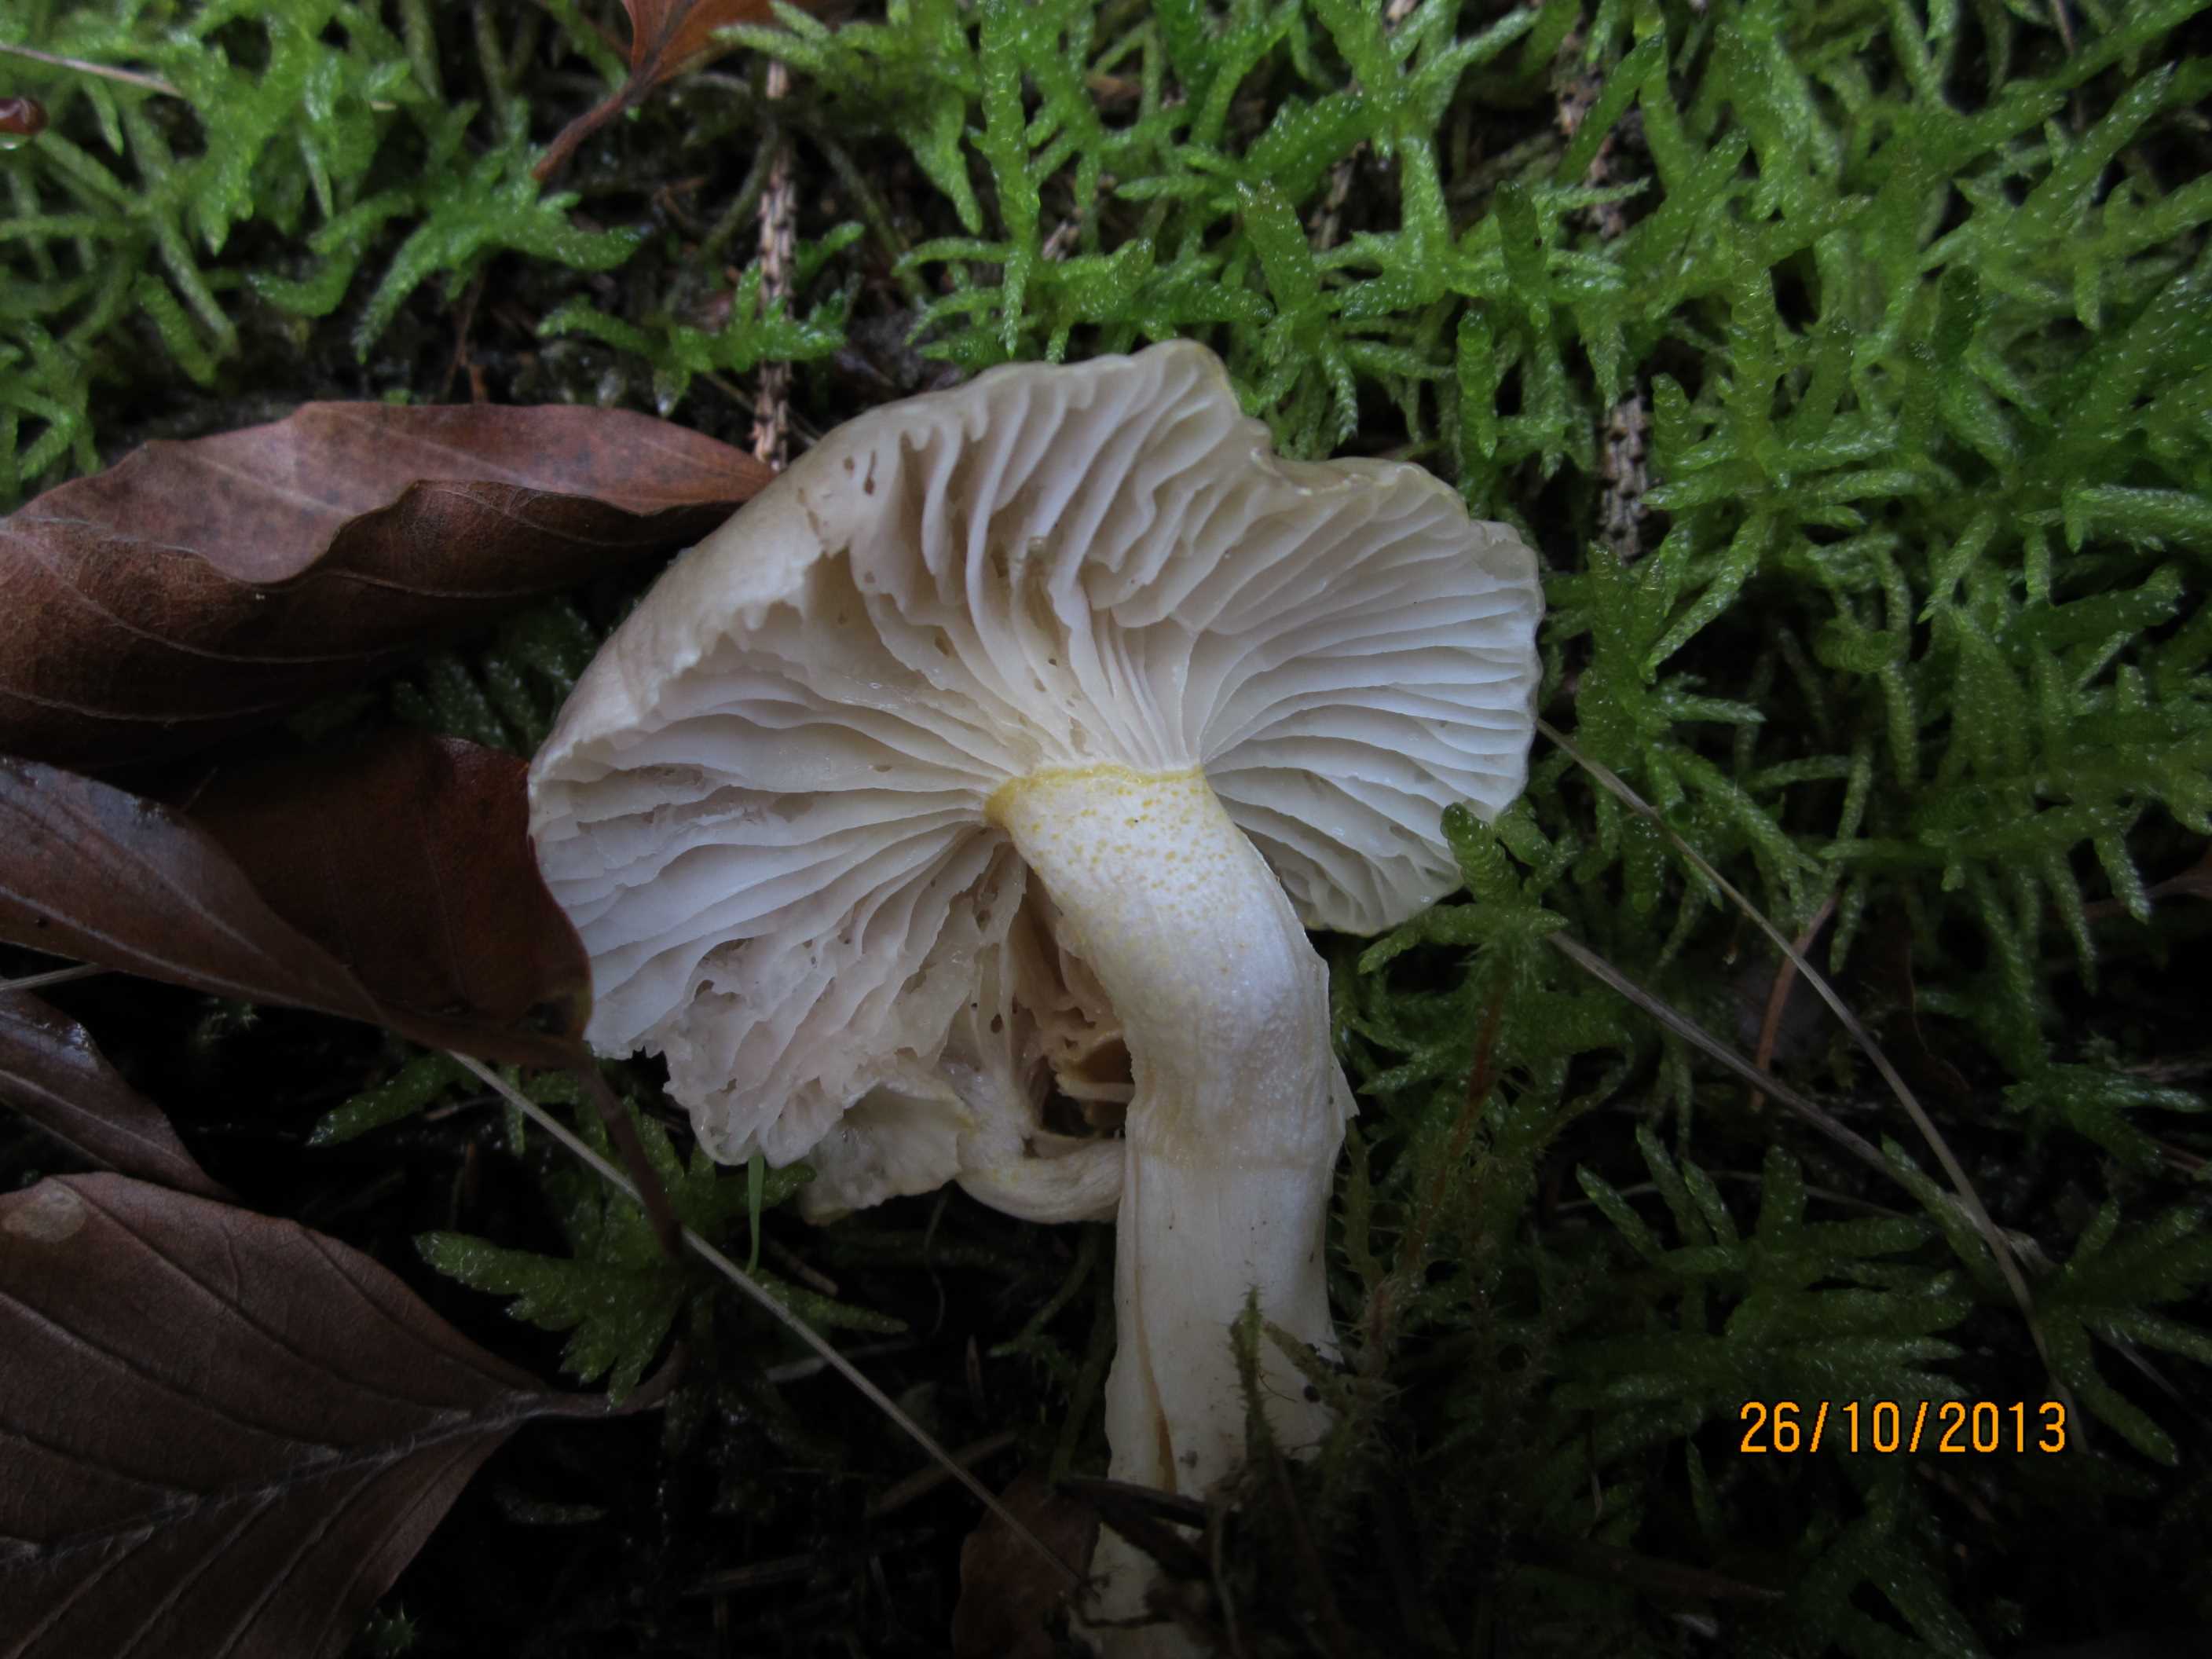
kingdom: Fungi
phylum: Basidiomycota
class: Agaricomycetes
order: Agaricales
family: Hygrophoraceae
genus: Hygrophorus
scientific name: Hygrophorus chrysodon
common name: gulfnugget sneglehat
